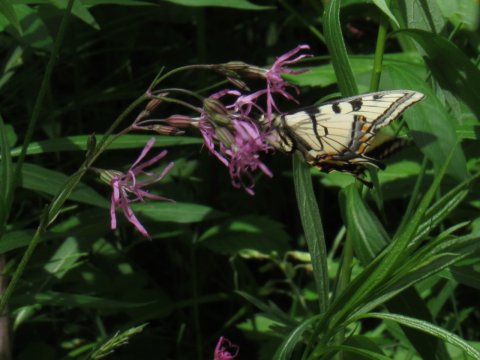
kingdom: Animalia
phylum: Arthropoda
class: Insecta
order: Lepidoptera
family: Papilionidae
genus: Pterourus
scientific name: Pterourus canadensis
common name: Canadian Tiger Swallowtail
